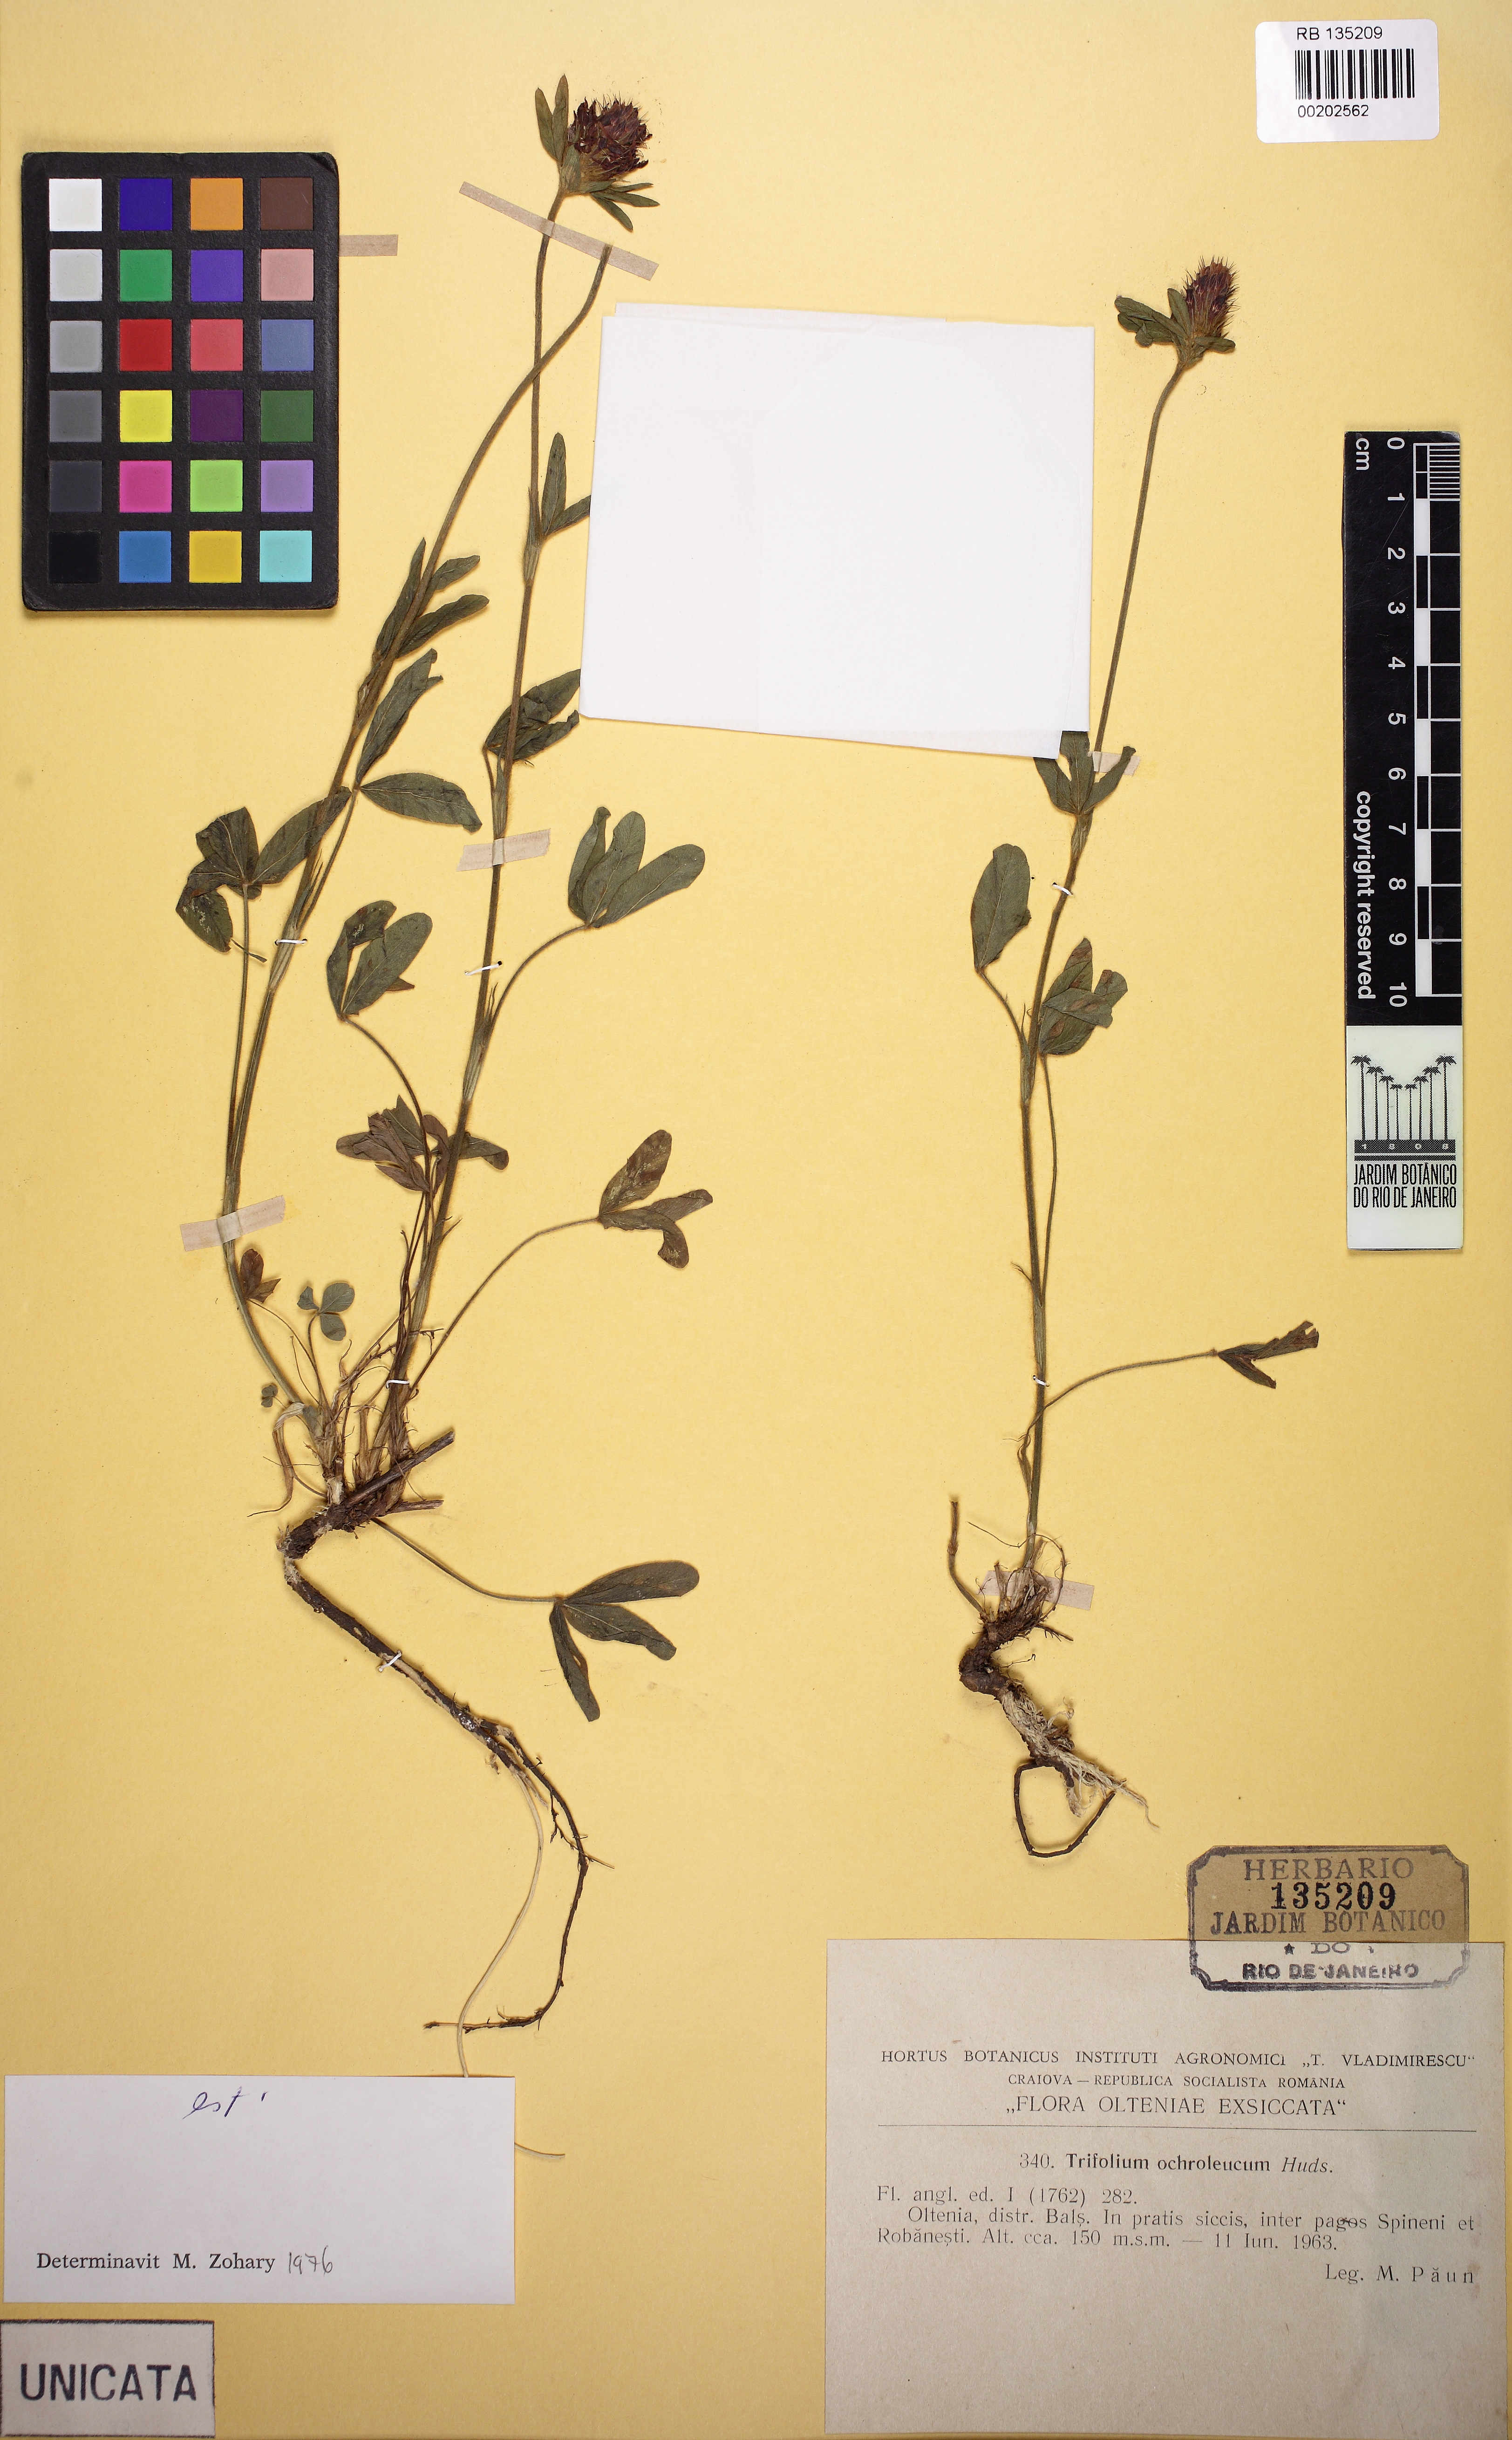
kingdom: Plantae
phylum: Tracheophyta
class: Magnoliopsida
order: Fabales
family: Fabaceae
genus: Trifolium
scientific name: Trifolium ochroleucon
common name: Sulphur clover
